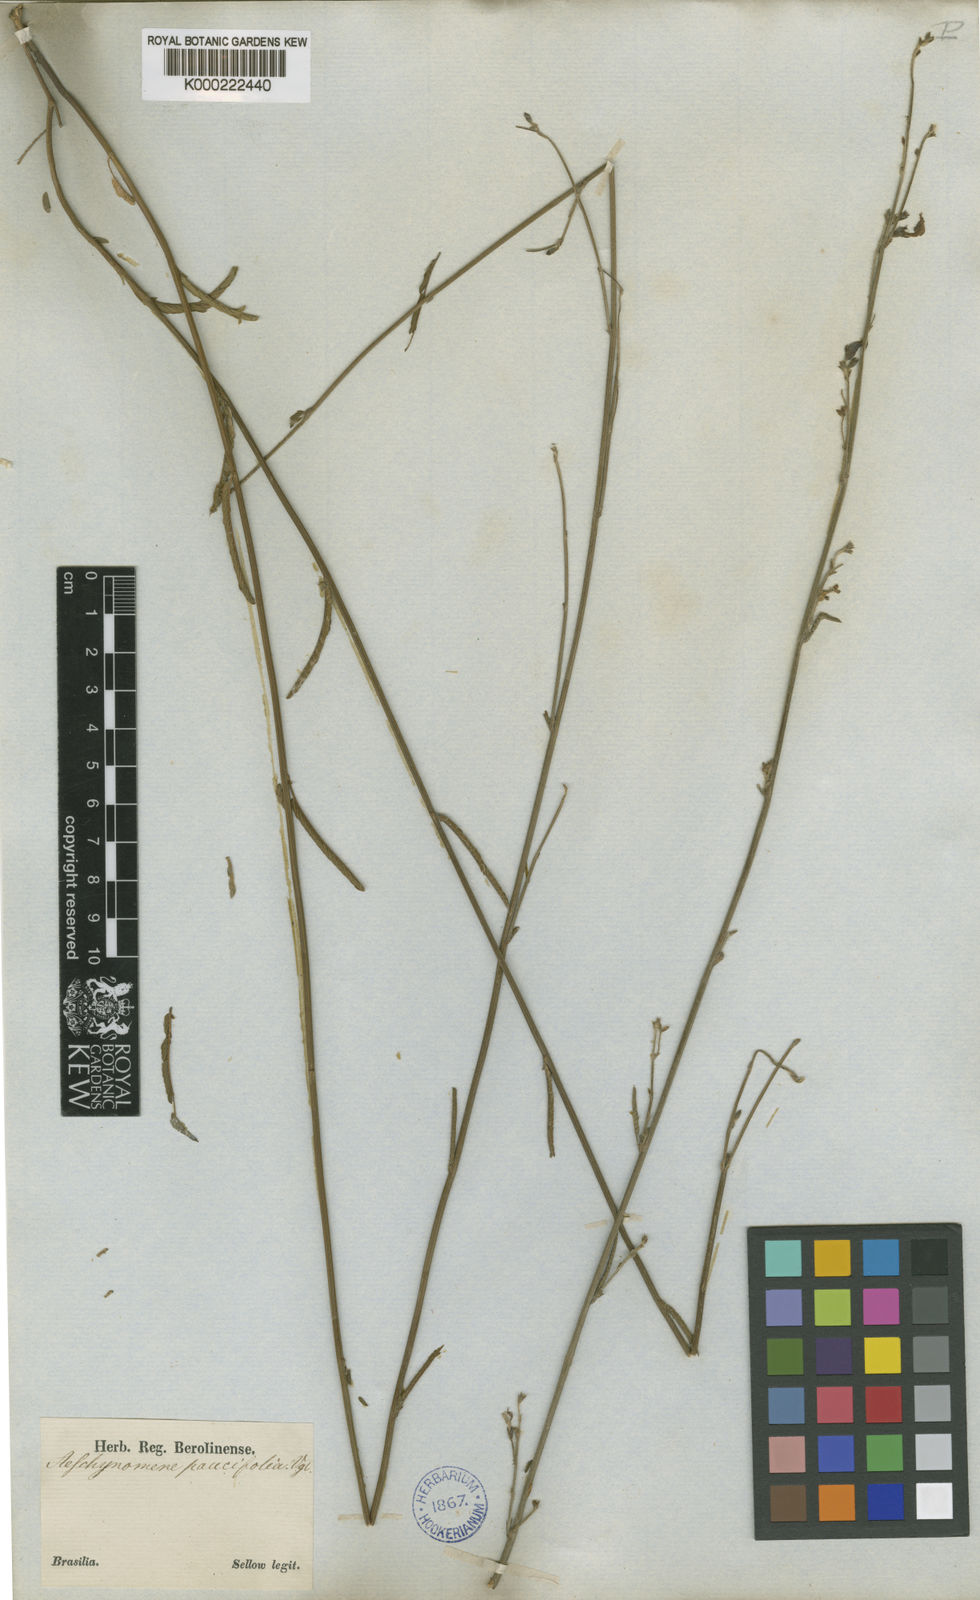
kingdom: Plantae
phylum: Tracheophyta
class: Magnoliopsida
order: Fabales
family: Fabaceae
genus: Ctenodon
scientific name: Ctenodon molliculus
